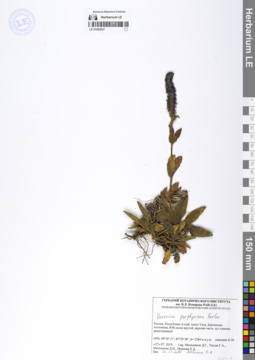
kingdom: Plantae
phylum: Tracheophyta
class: Magnoliopsida
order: Lamiales
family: Plantaginaceae
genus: Veronica
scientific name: Veronica porphyriana
